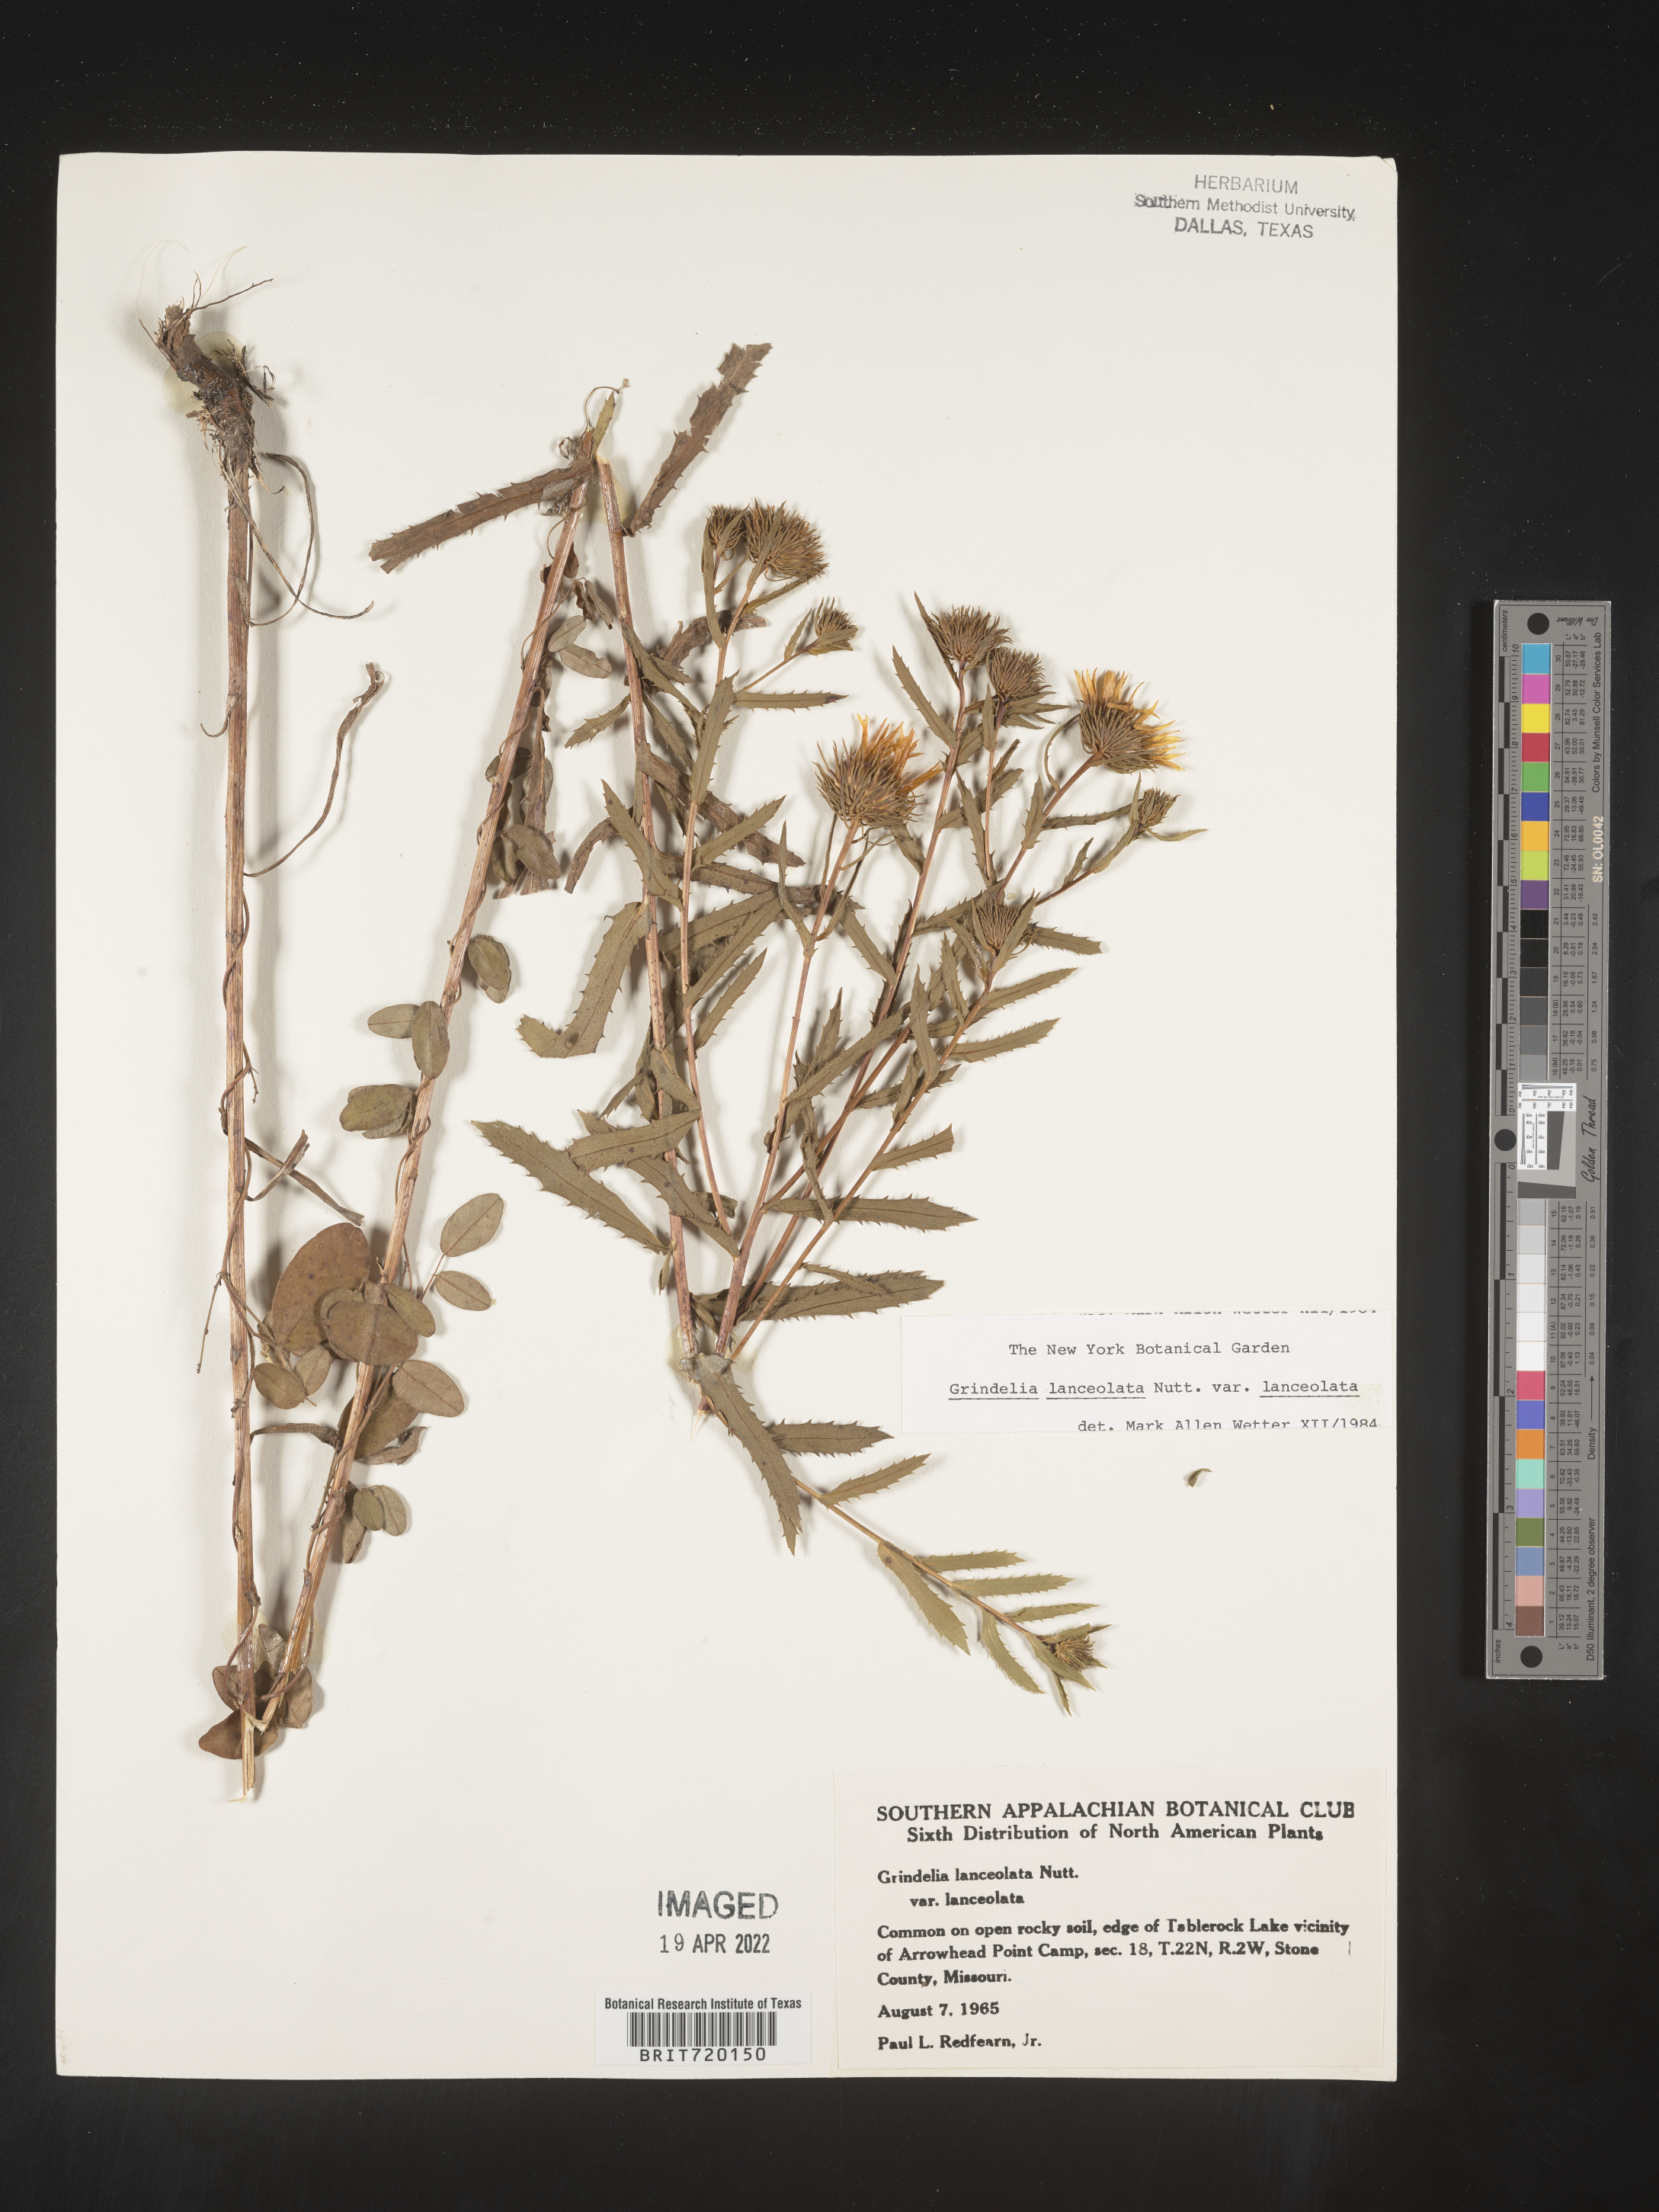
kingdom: Plantae
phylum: Tracheophyta
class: Magnoliopsida
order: Asterales
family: Asteraceae
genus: Grindelia
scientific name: Grindelia lanceolata
